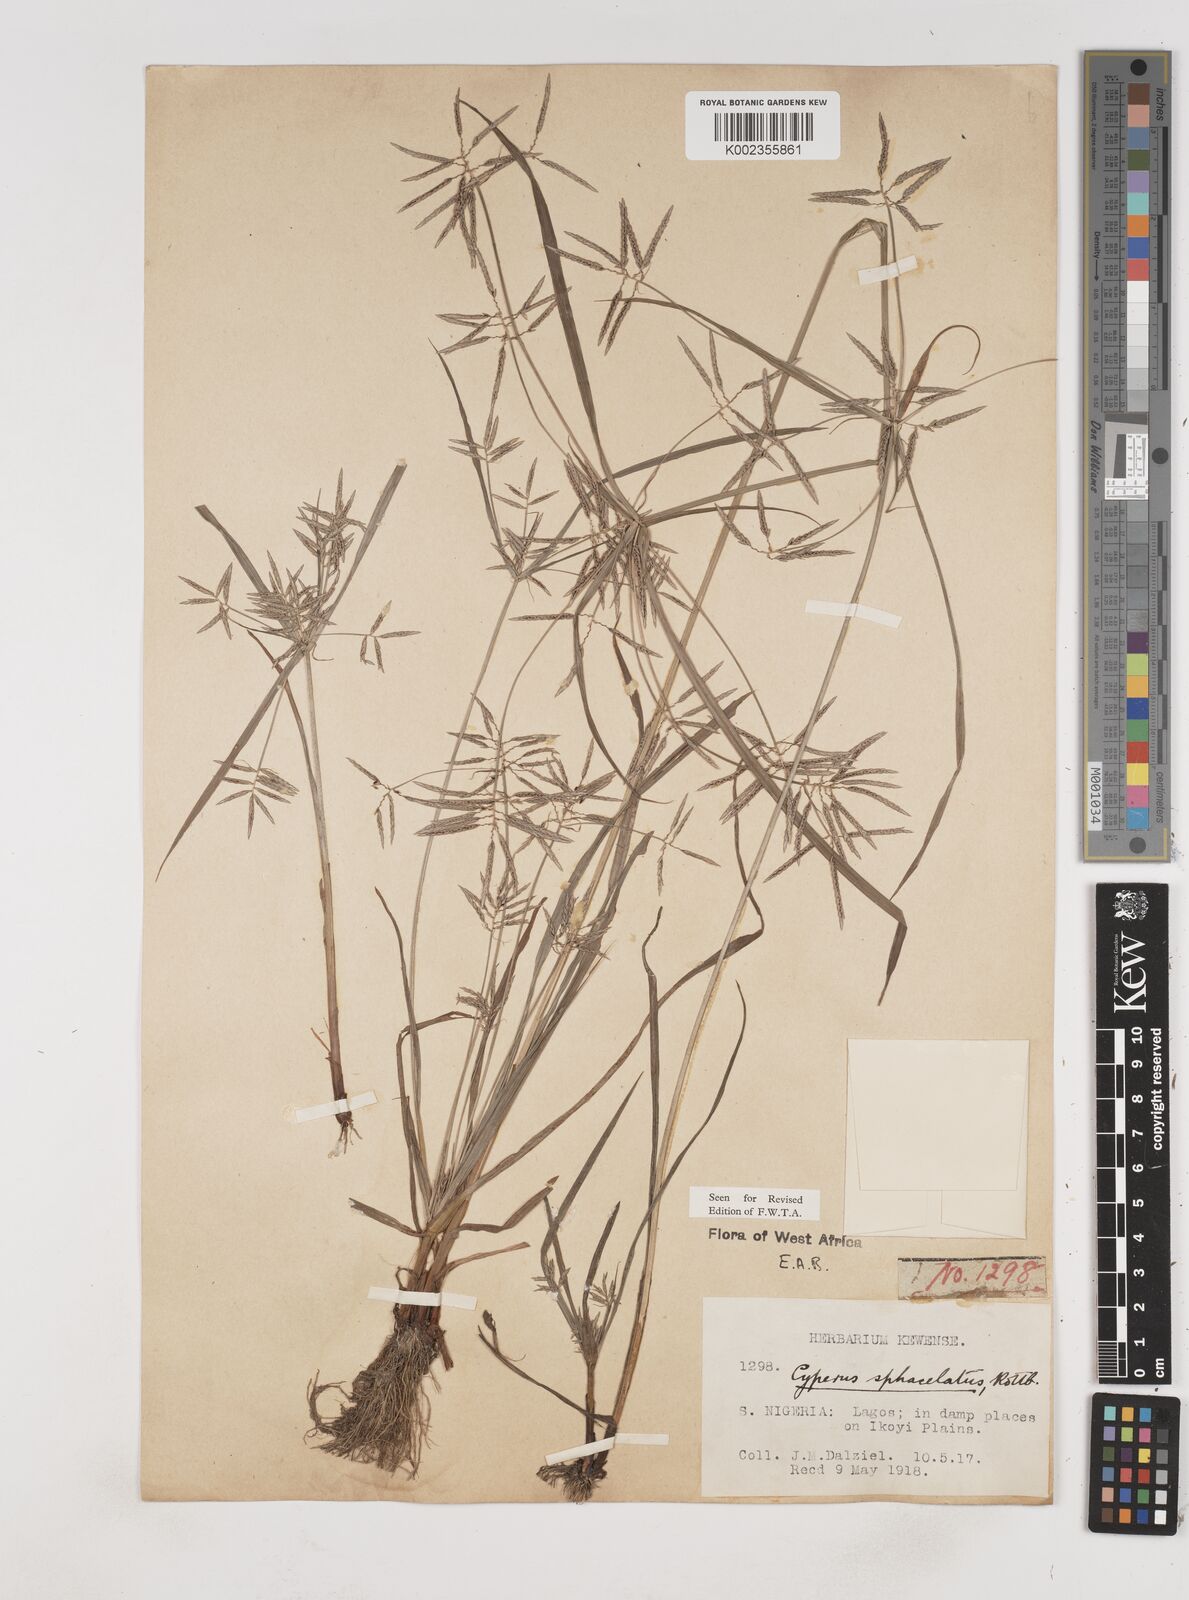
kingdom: Plantae
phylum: Tracheophyta
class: Liliopsida
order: Poales
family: Cyperaceae
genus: Cyperus
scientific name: Cyperus sphacelatus
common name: Roadside flatsedge
